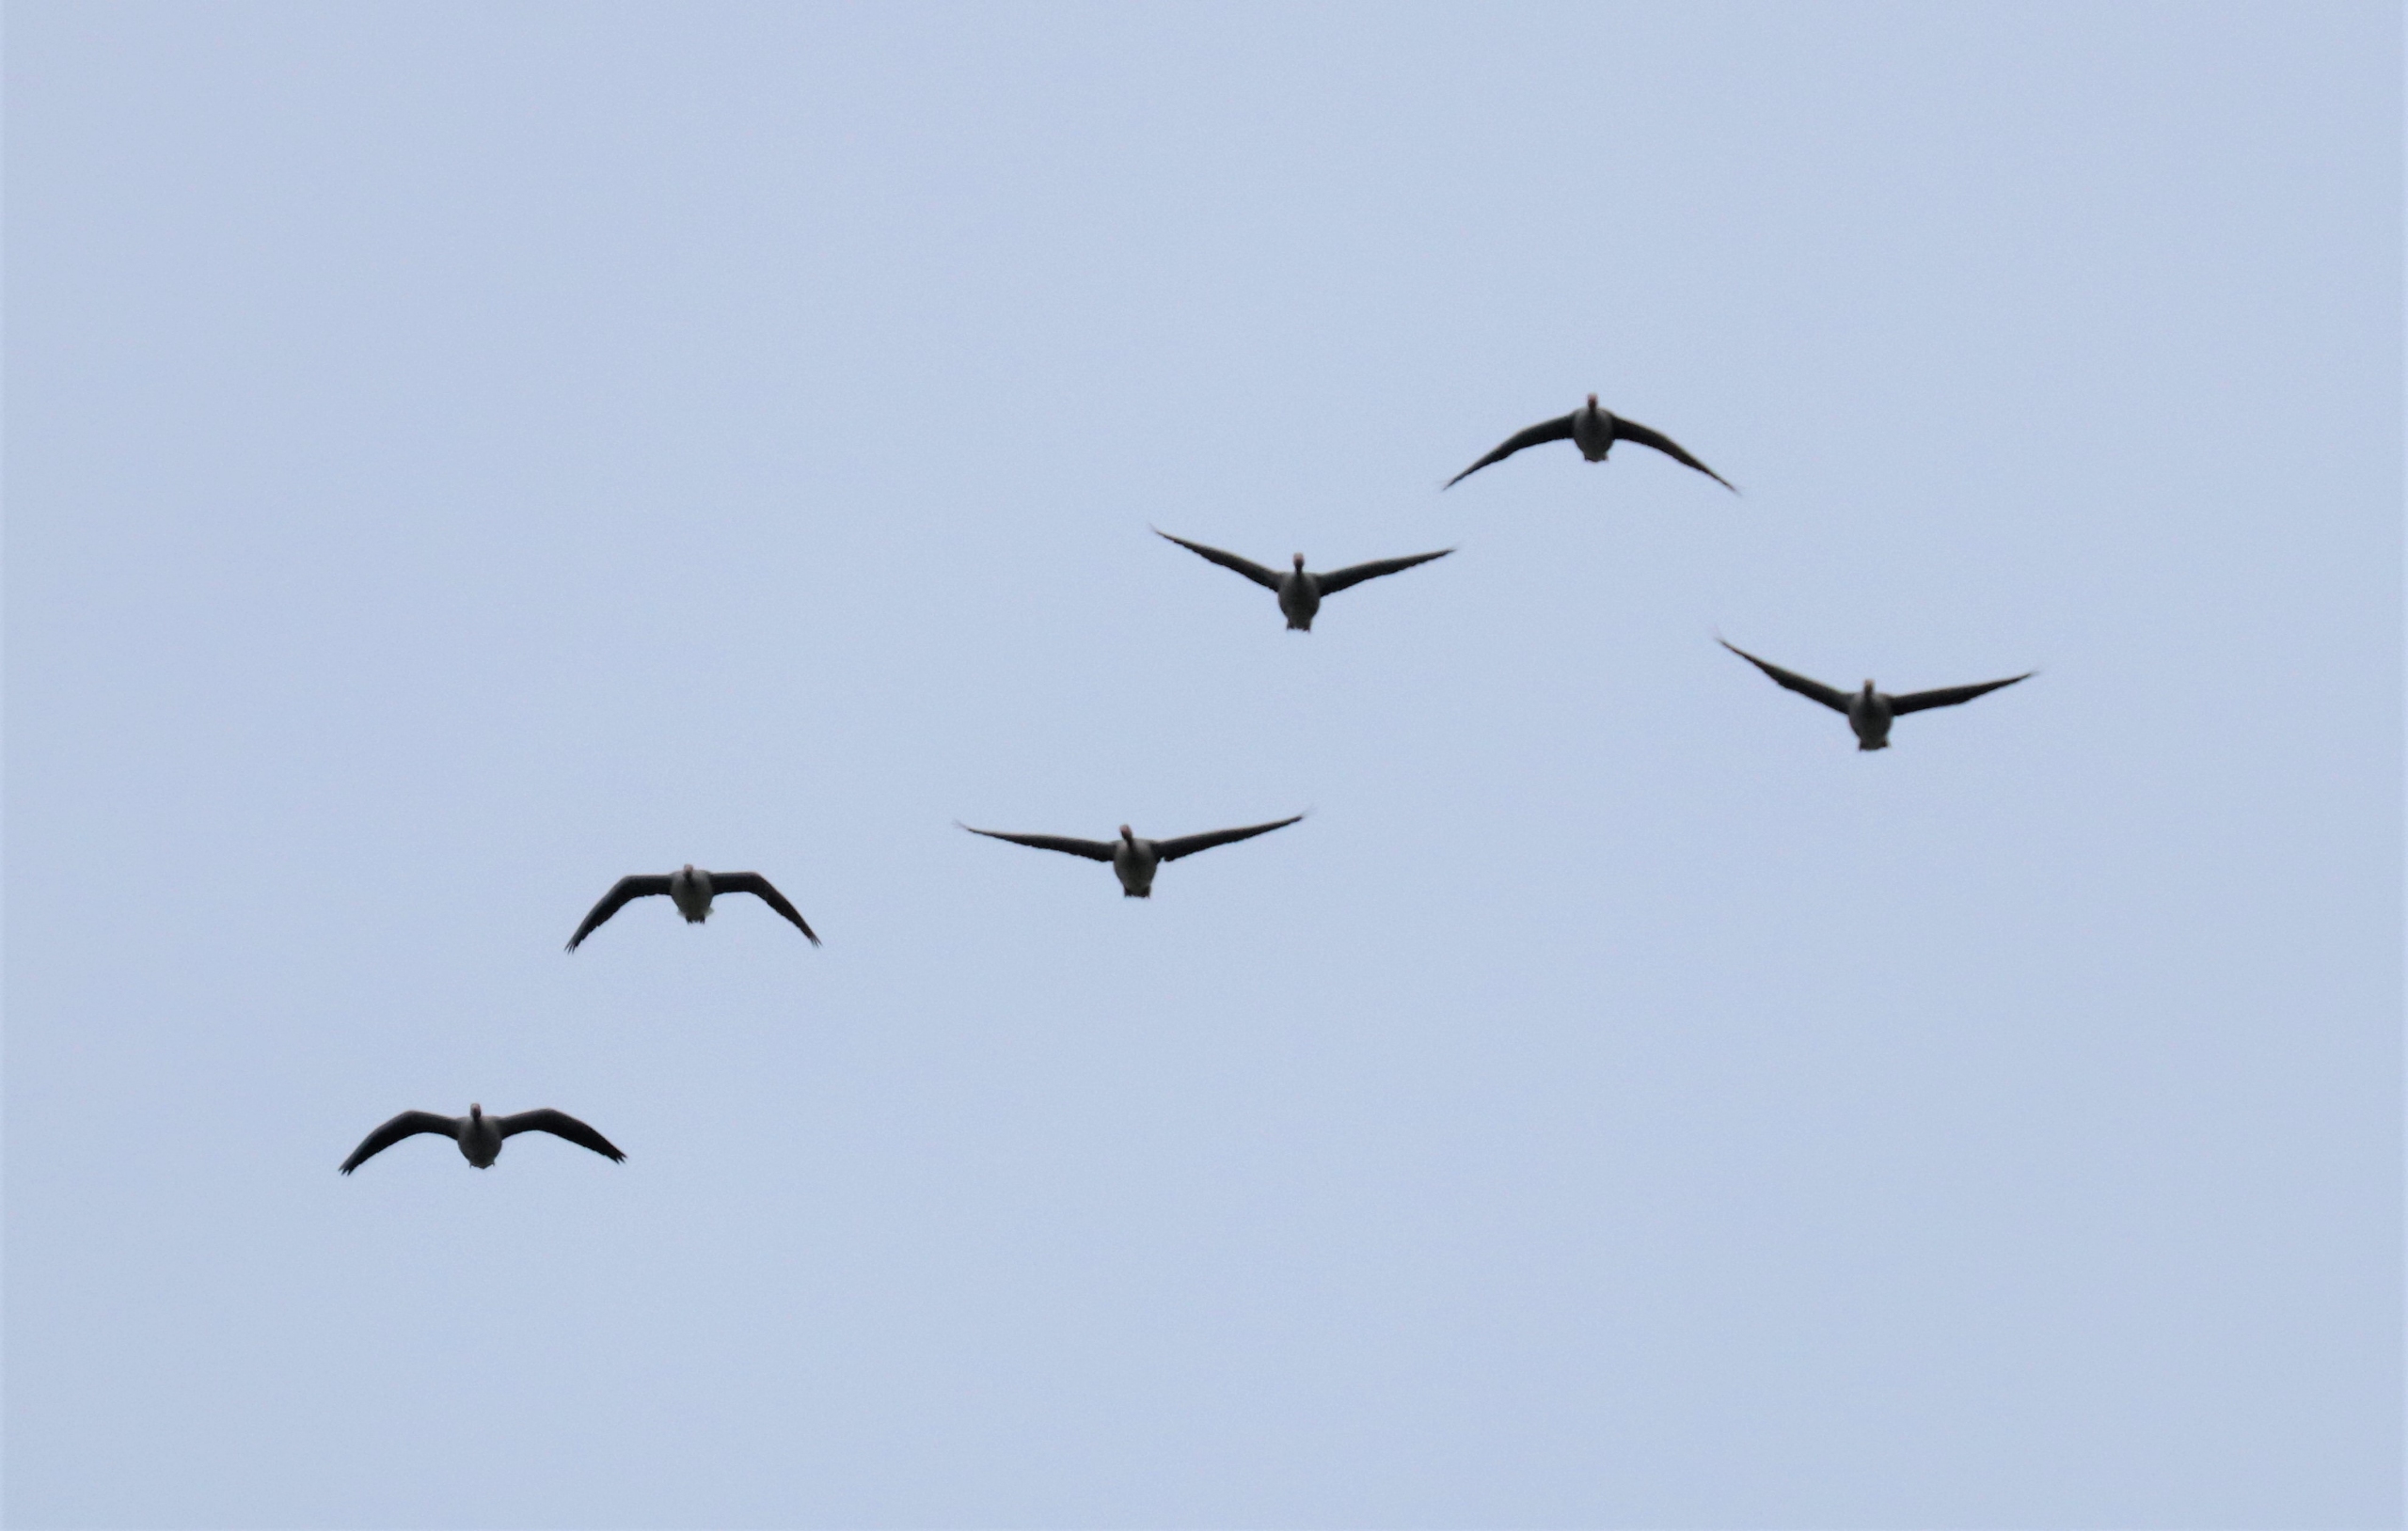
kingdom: Animalia
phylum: Chordata
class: Aves
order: Anseriformes
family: Anatidae
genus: Anser
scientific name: Anser anser
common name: Grågås
